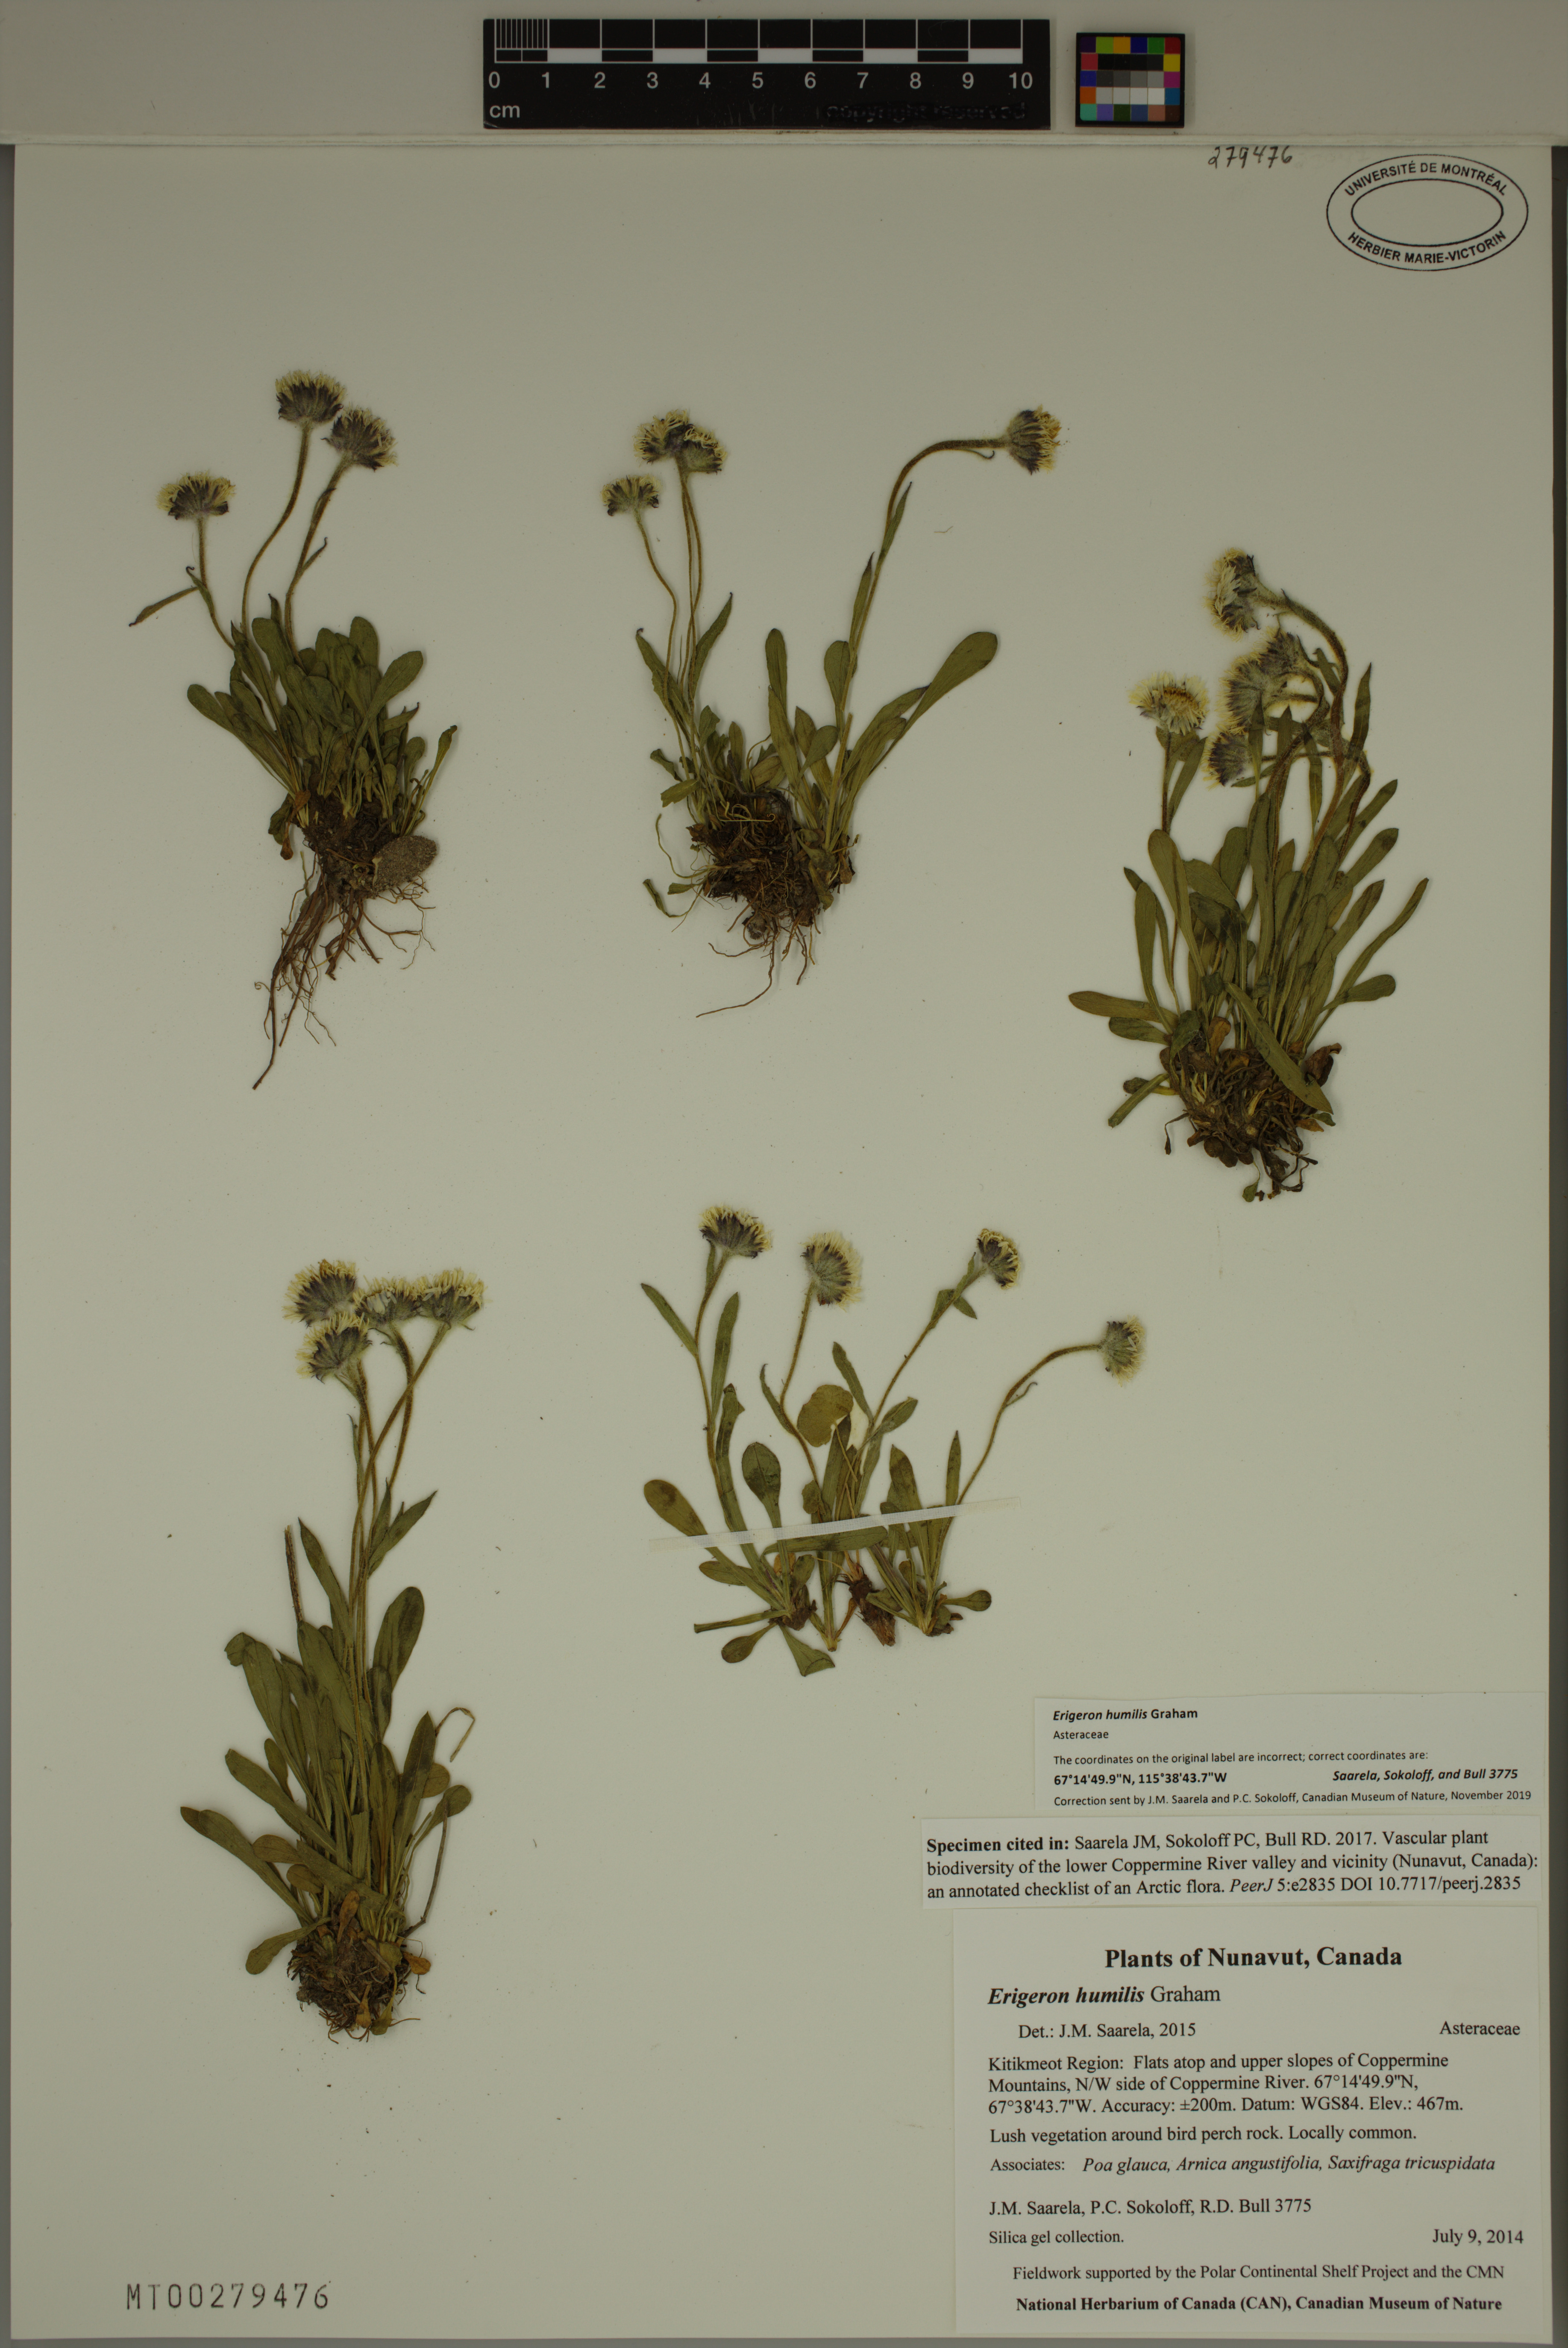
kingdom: Plantae
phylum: Tracheophyta
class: Magnoliopsida
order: Asterales
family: Asteraceae
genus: Erigeron
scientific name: Erigeron humilis
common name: Arctic-alpine fleabane
